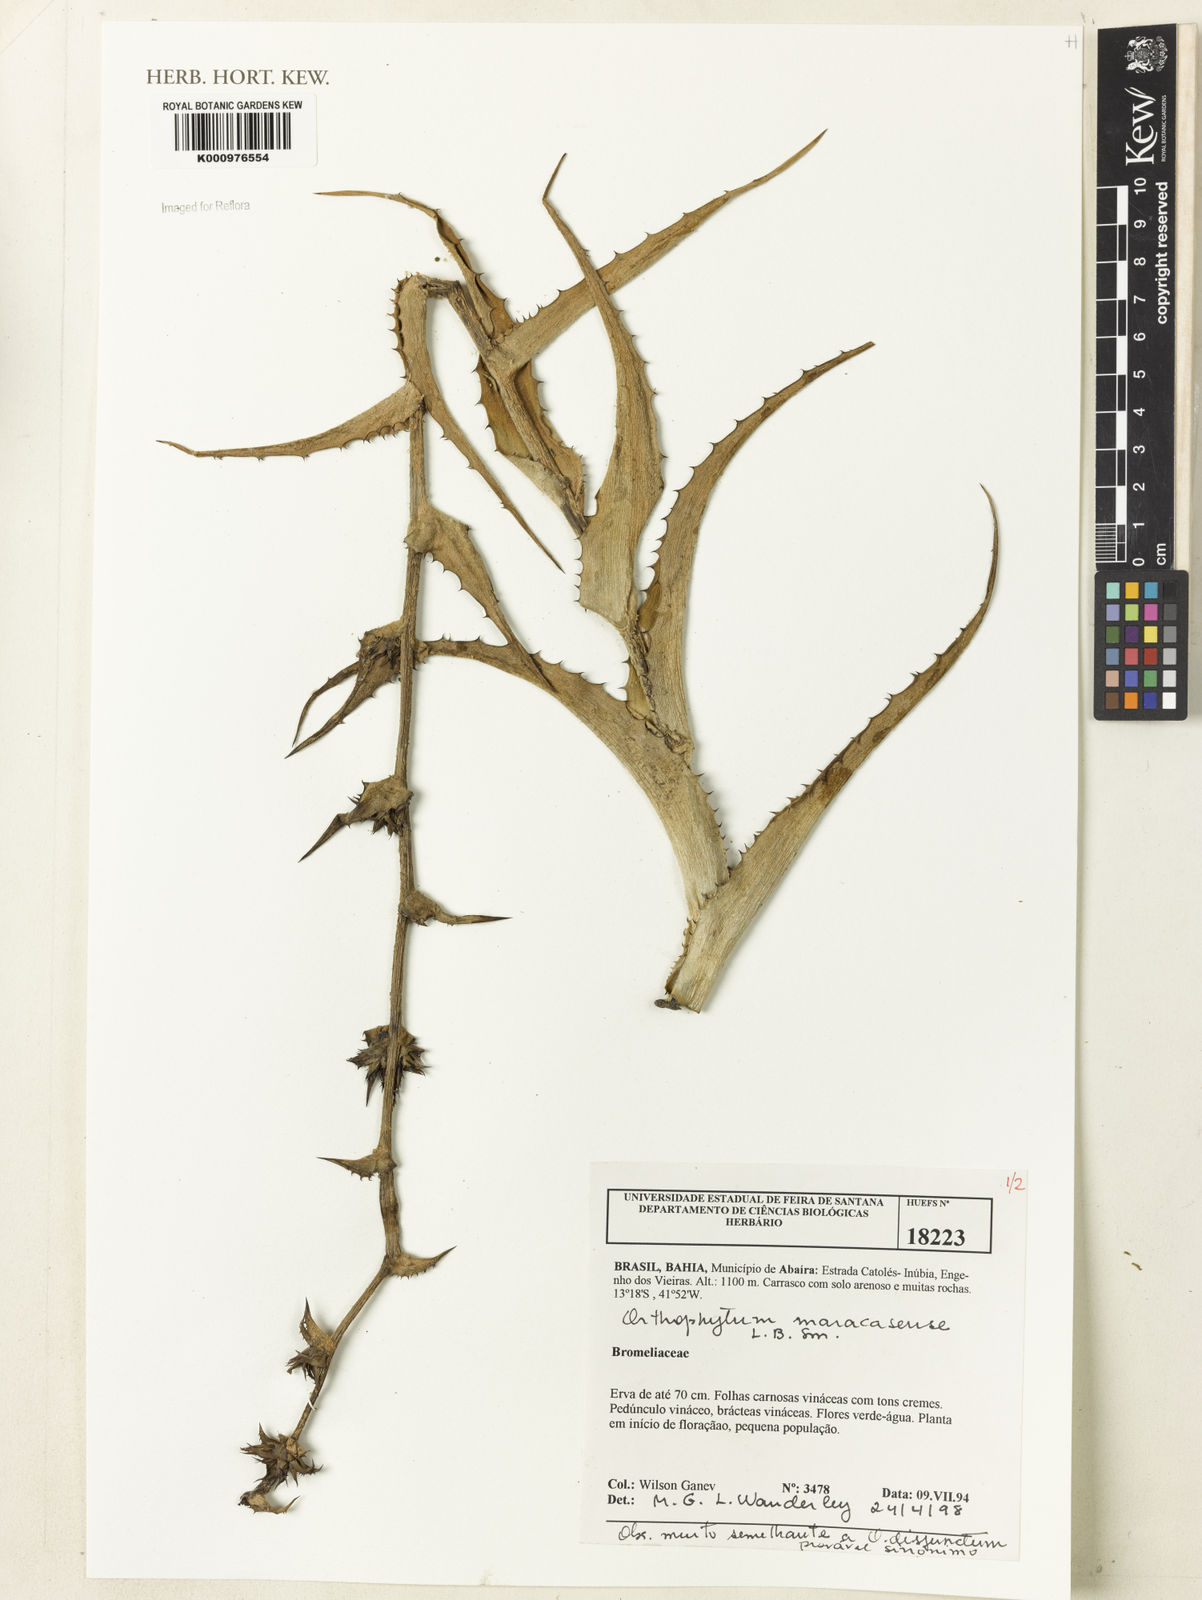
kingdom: Plantae
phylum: Tracheophyta
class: Liliopsida
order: Poales
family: Bromeliaceae
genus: Orthophytum
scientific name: Orthophytum maracasense
